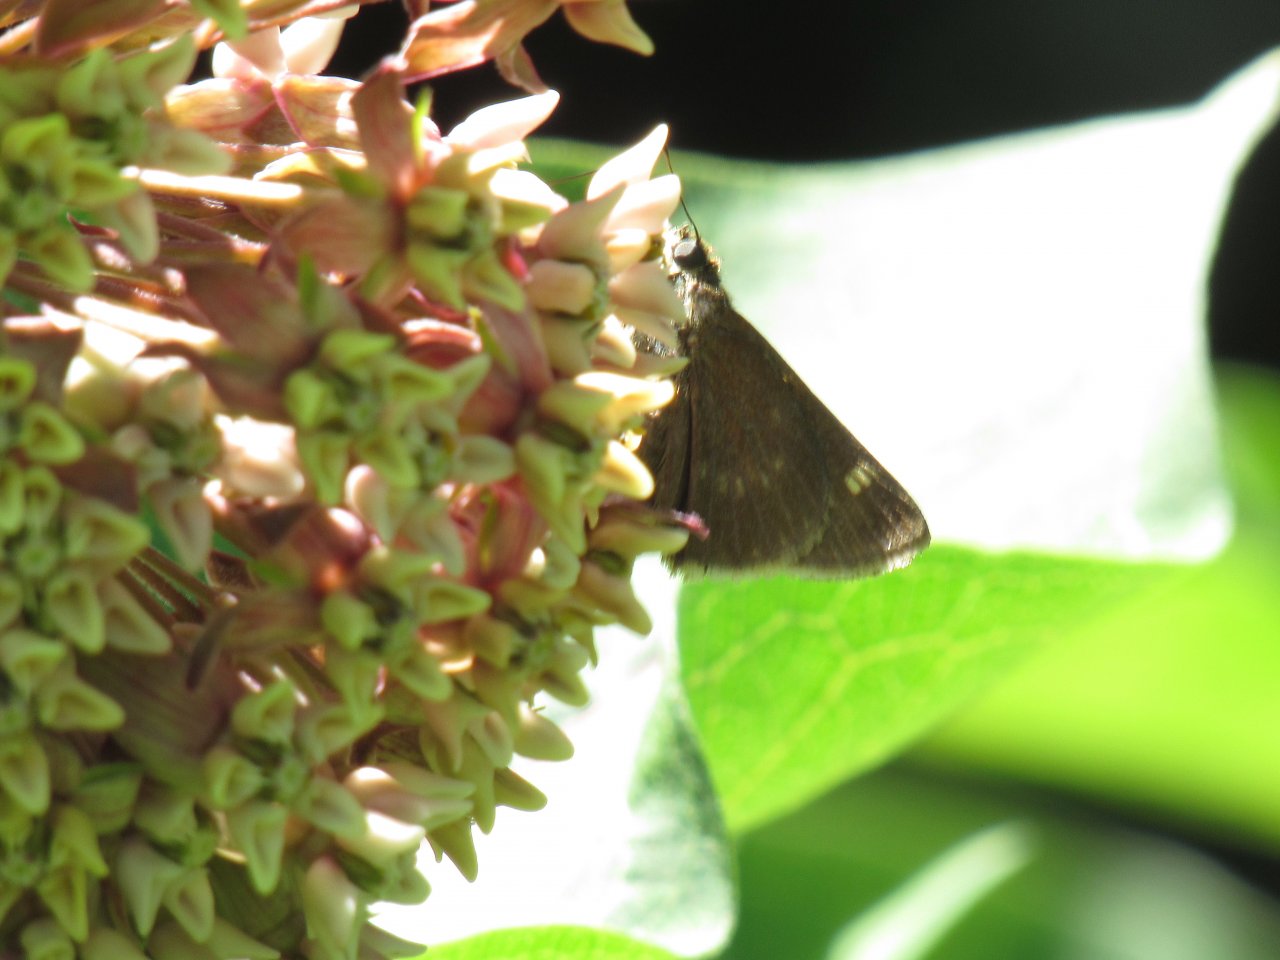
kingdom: Animalia
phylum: Arthropoda
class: Insecta
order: Lepidoptera
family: Hesperiidae
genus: Vernia
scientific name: Vernia verna
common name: Little Glassywing
